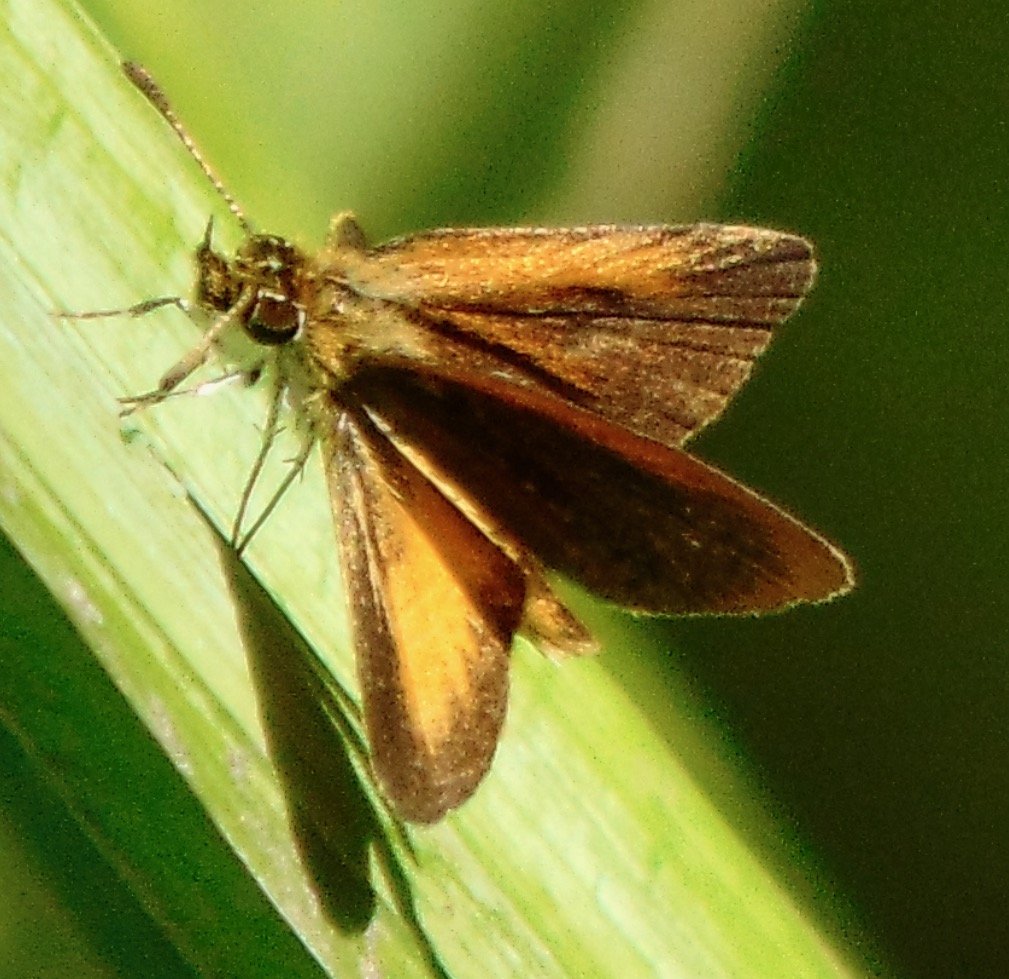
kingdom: Animalia
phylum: Arthropoda
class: Insecta
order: Lepidoptera
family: Hesperiidae
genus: Ancyloxypha
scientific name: Ancyloxypha numitor
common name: Least Skipper
